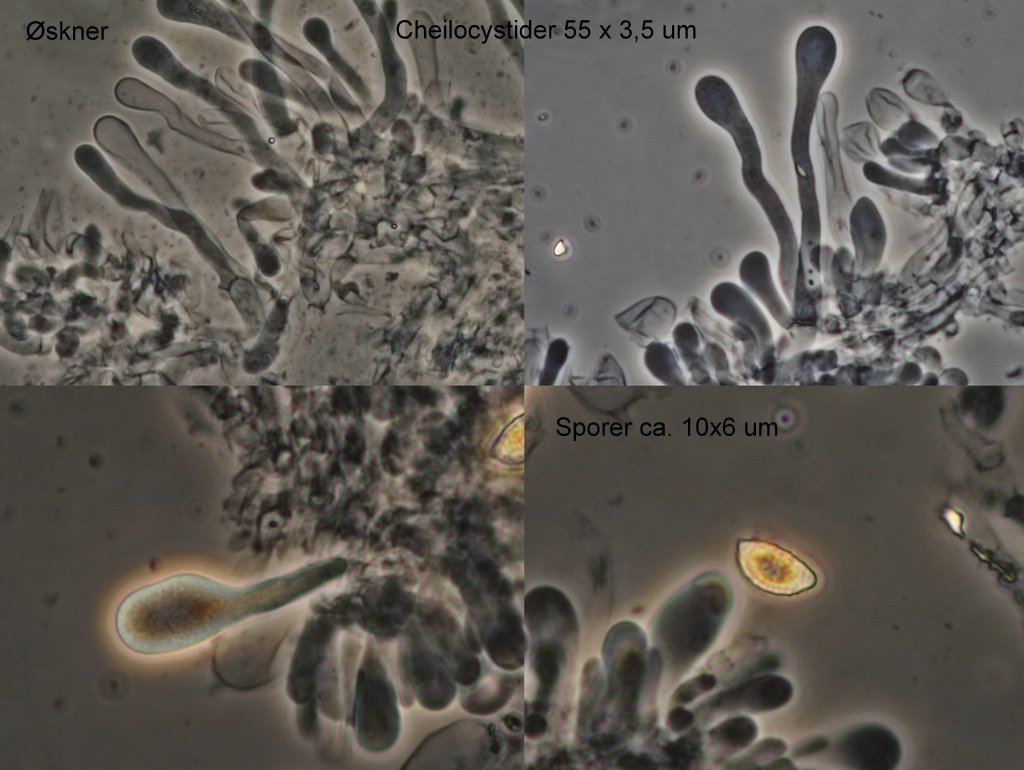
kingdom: Fungi
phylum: Basidiomycota
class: Agaricomycetes
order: Agaricales
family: Hymenogastraceae
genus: Hebeloma
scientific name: Hebeloma crustuliniforme
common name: almindelig tåreblad
